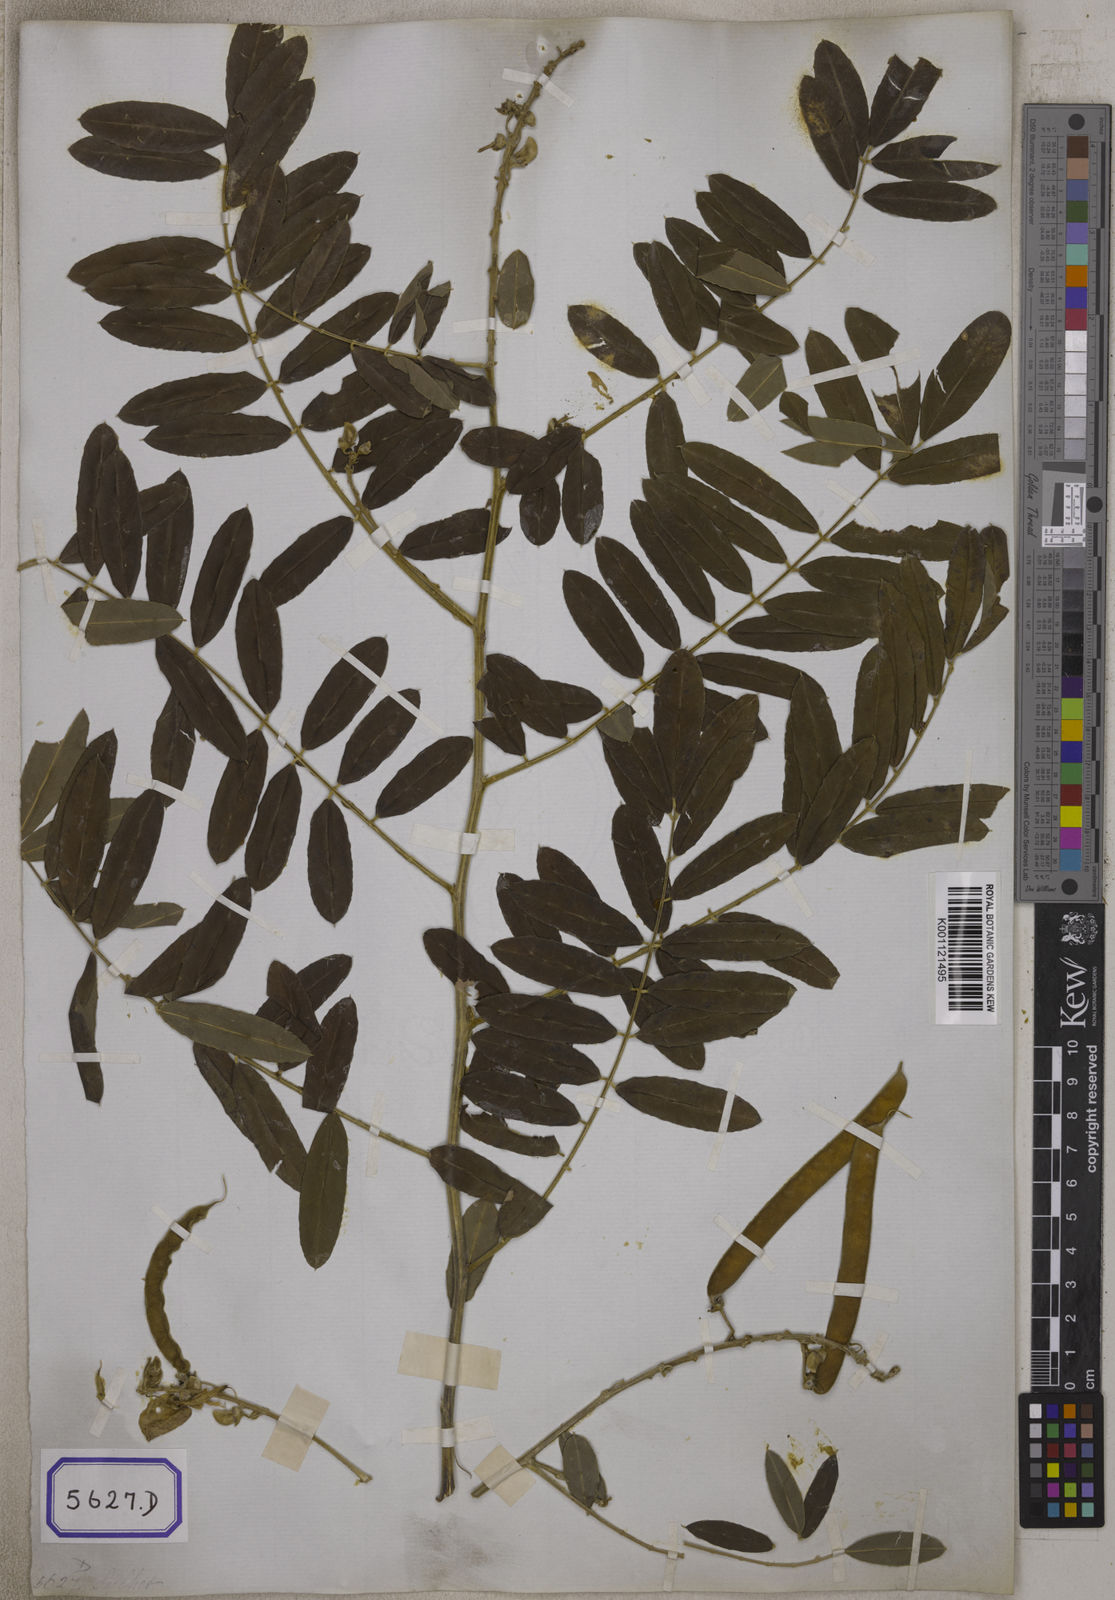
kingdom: Plantae
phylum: Tracheophyta
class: Magnoliopsida
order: Fabales
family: Fabaceae
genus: Tephrosia
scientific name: Tephrosia candida
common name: White tephrosia
